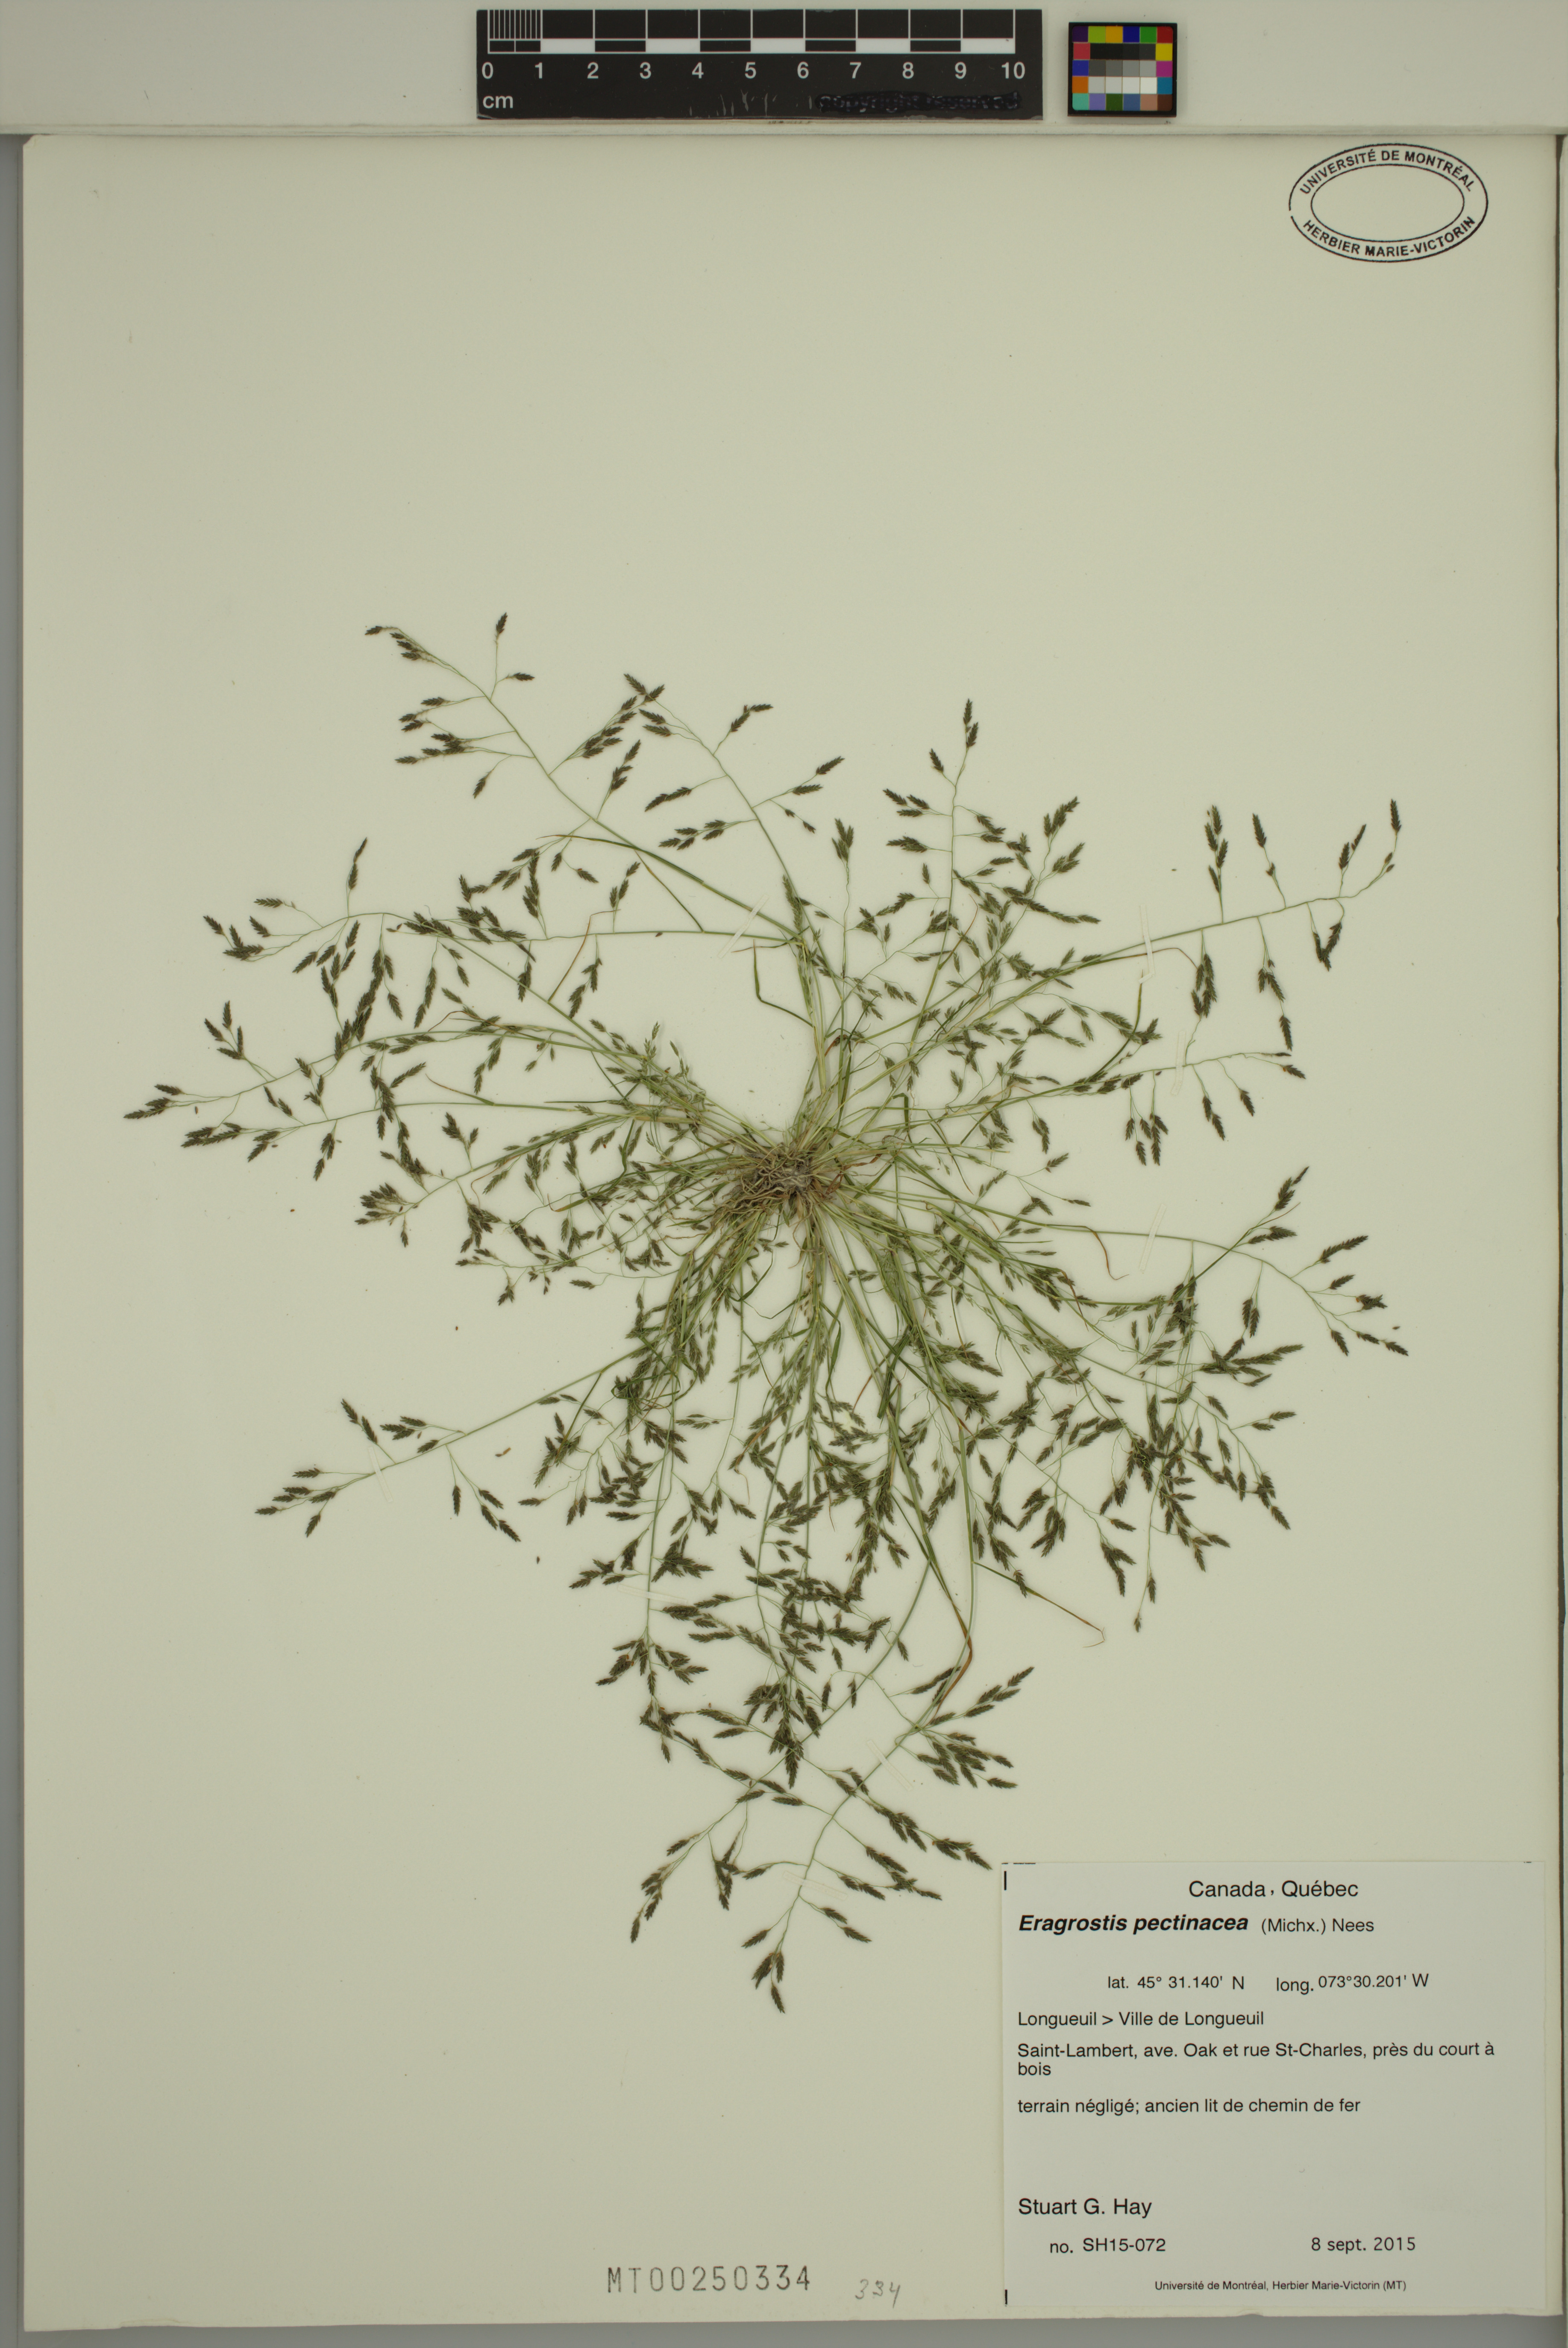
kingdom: Plantae
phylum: Tracheophyta
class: Liliopsida
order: Poales
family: Poaceae
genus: Eragrostis
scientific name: Eragrostis pectinacea
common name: Tufted lovegrass
